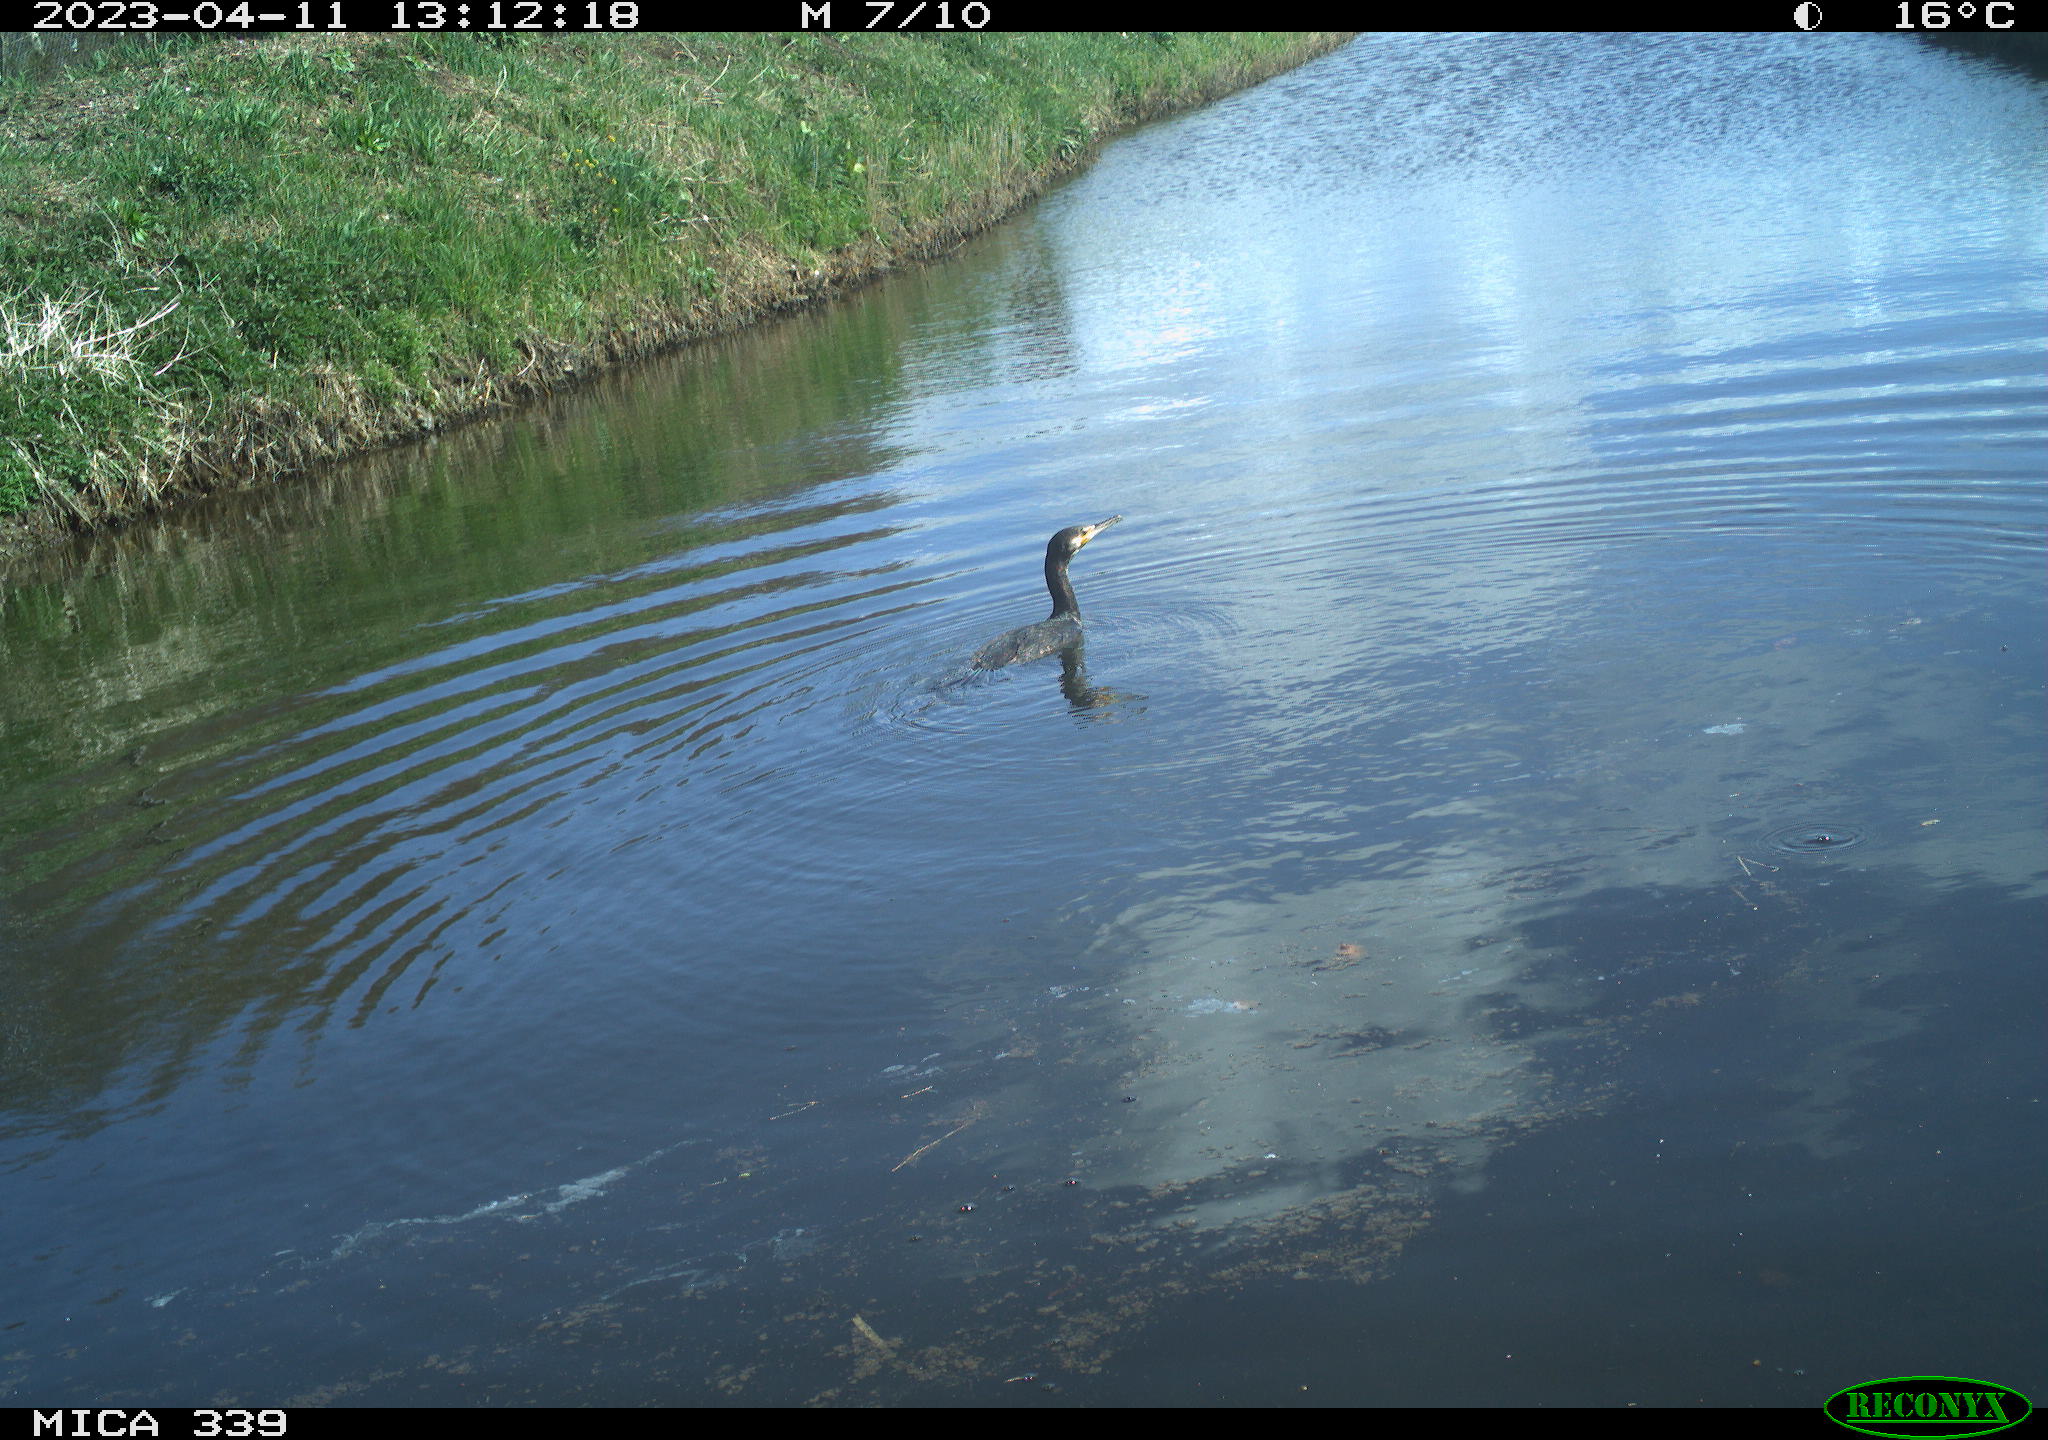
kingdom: Animalia
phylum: Chordata
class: Aves
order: Anseriformes
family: Anatidae
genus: Anas
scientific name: Anas
